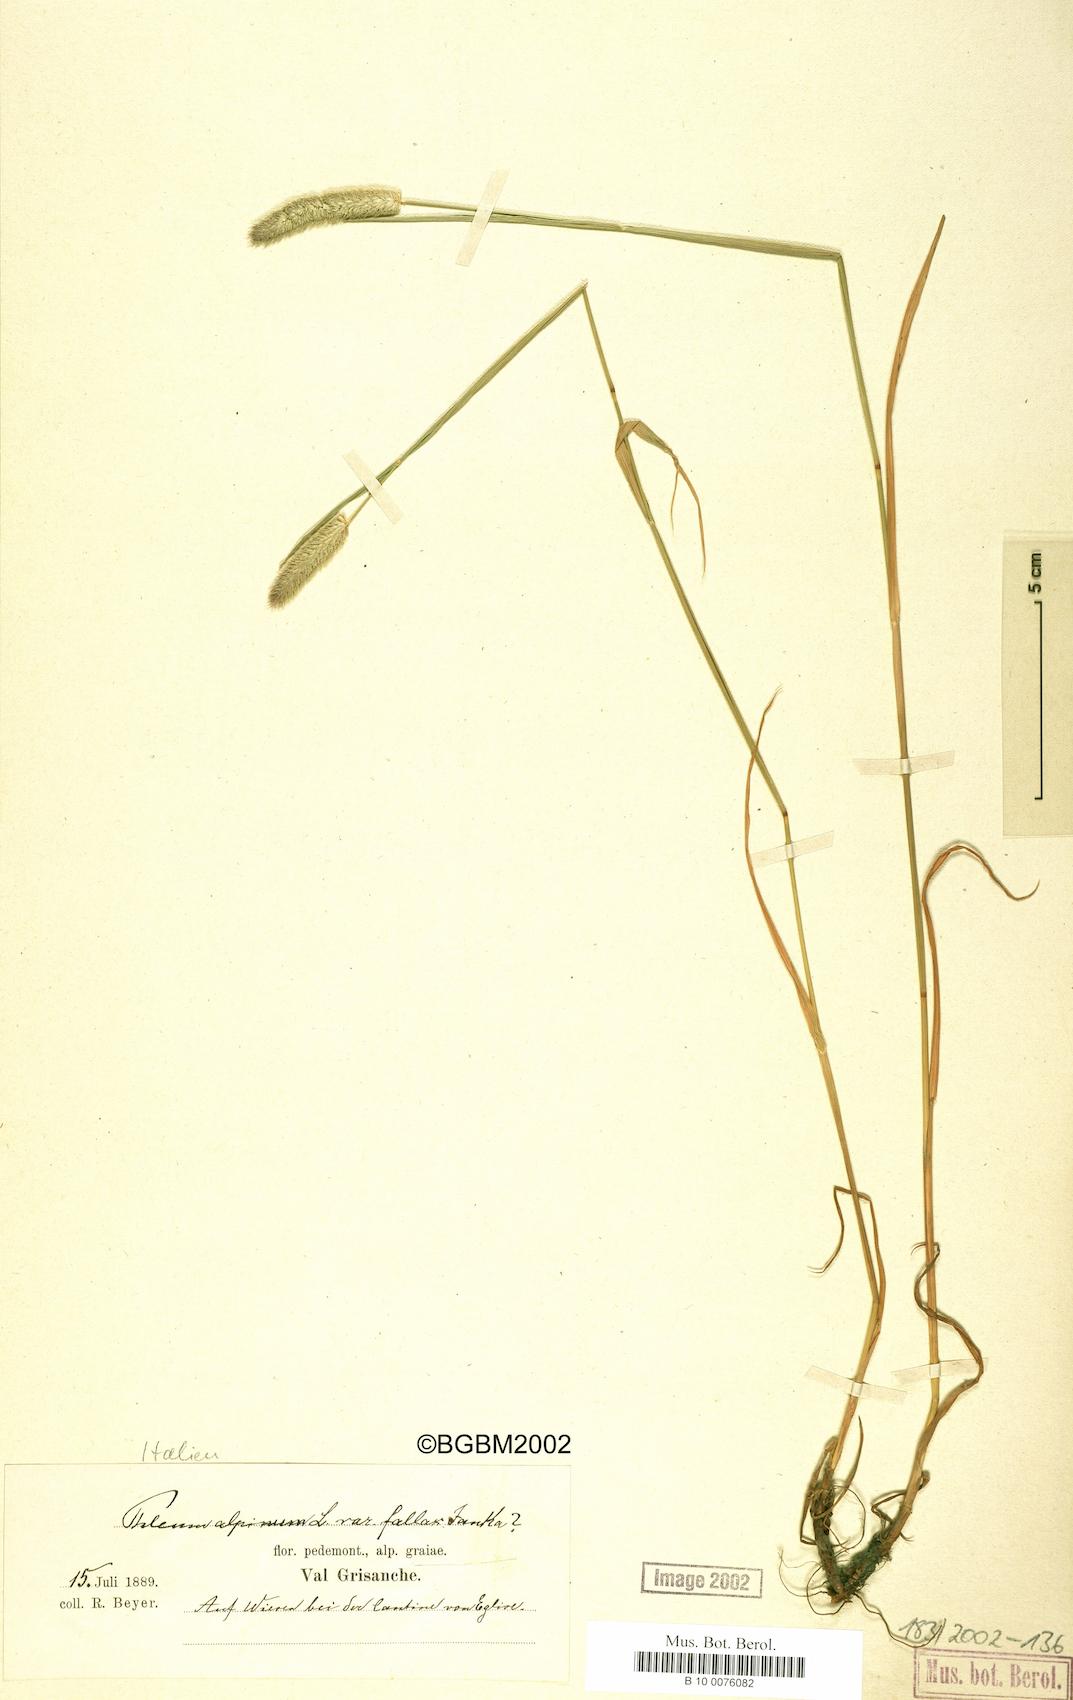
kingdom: Plantae
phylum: Tracheophyta
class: Liliopsida
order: Poales
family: Poaceae
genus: Phleum
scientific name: Phleum alpinum
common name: Alpine cat's-tail
